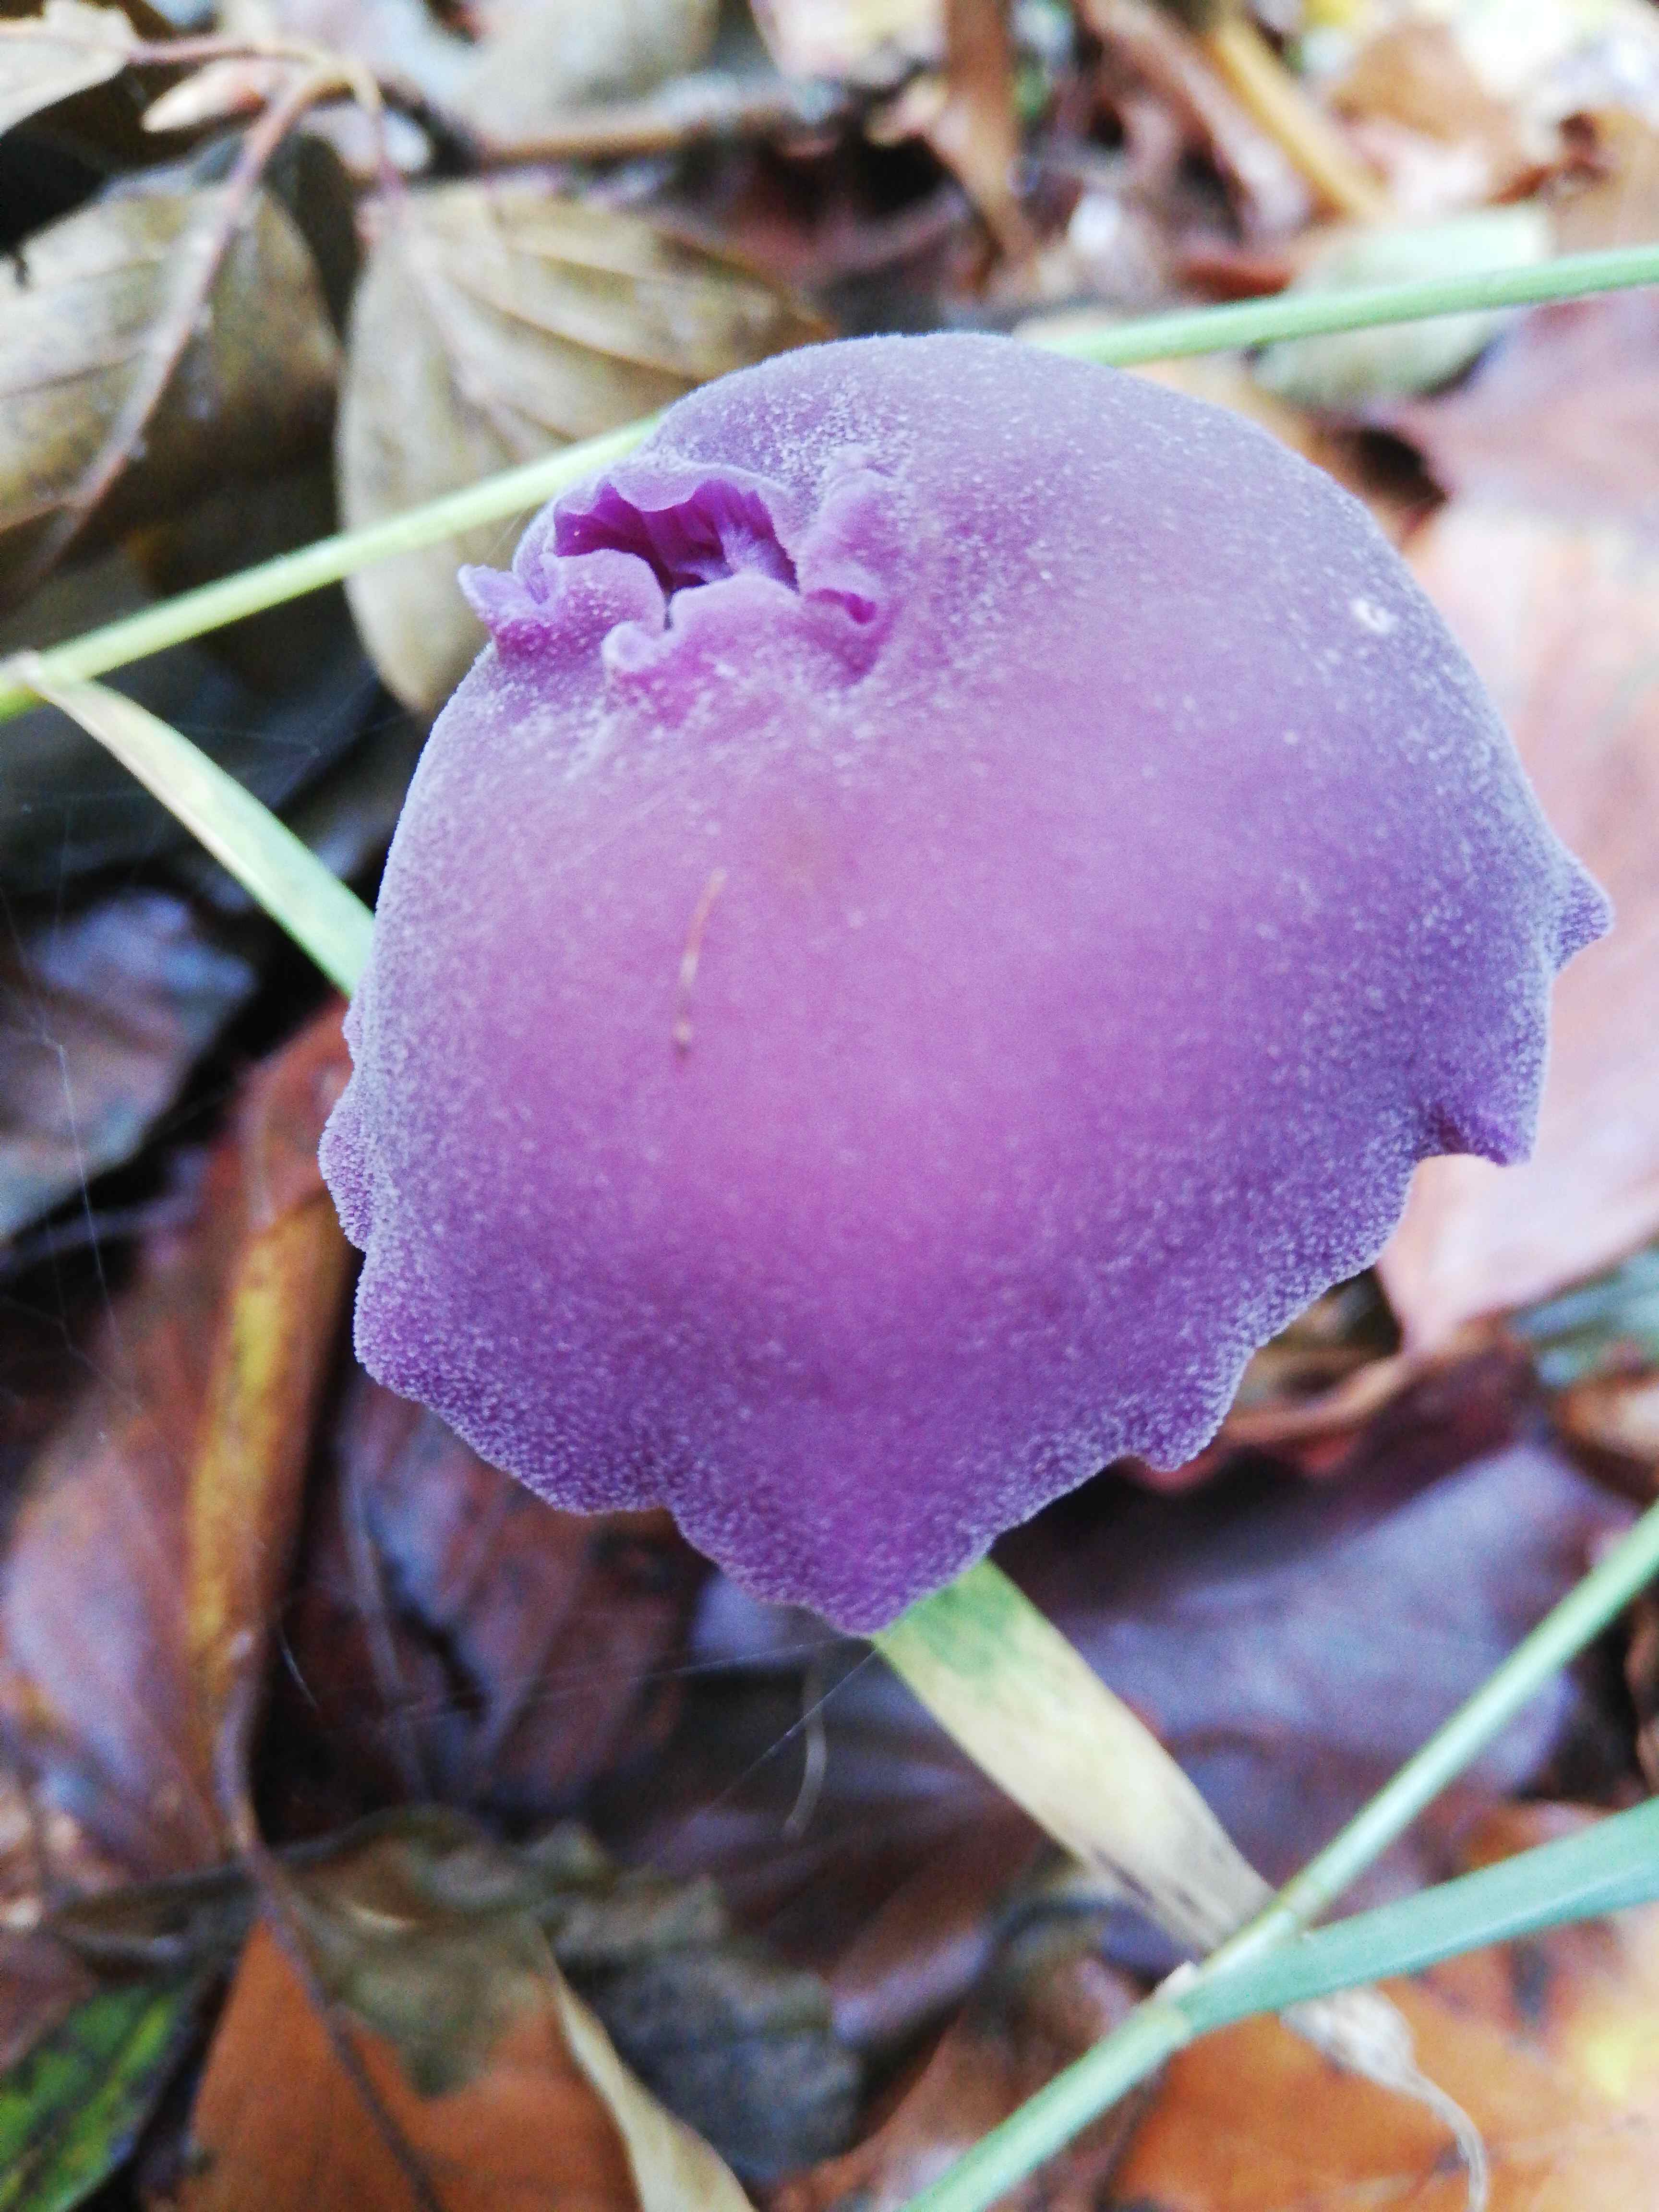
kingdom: Fungi
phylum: Basidiomycota
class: Agaricomycetes
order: Agaricales
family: Hydnangiaceae
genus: Laccaria
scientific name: Laccaria amethystina
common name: violet ametysthat
